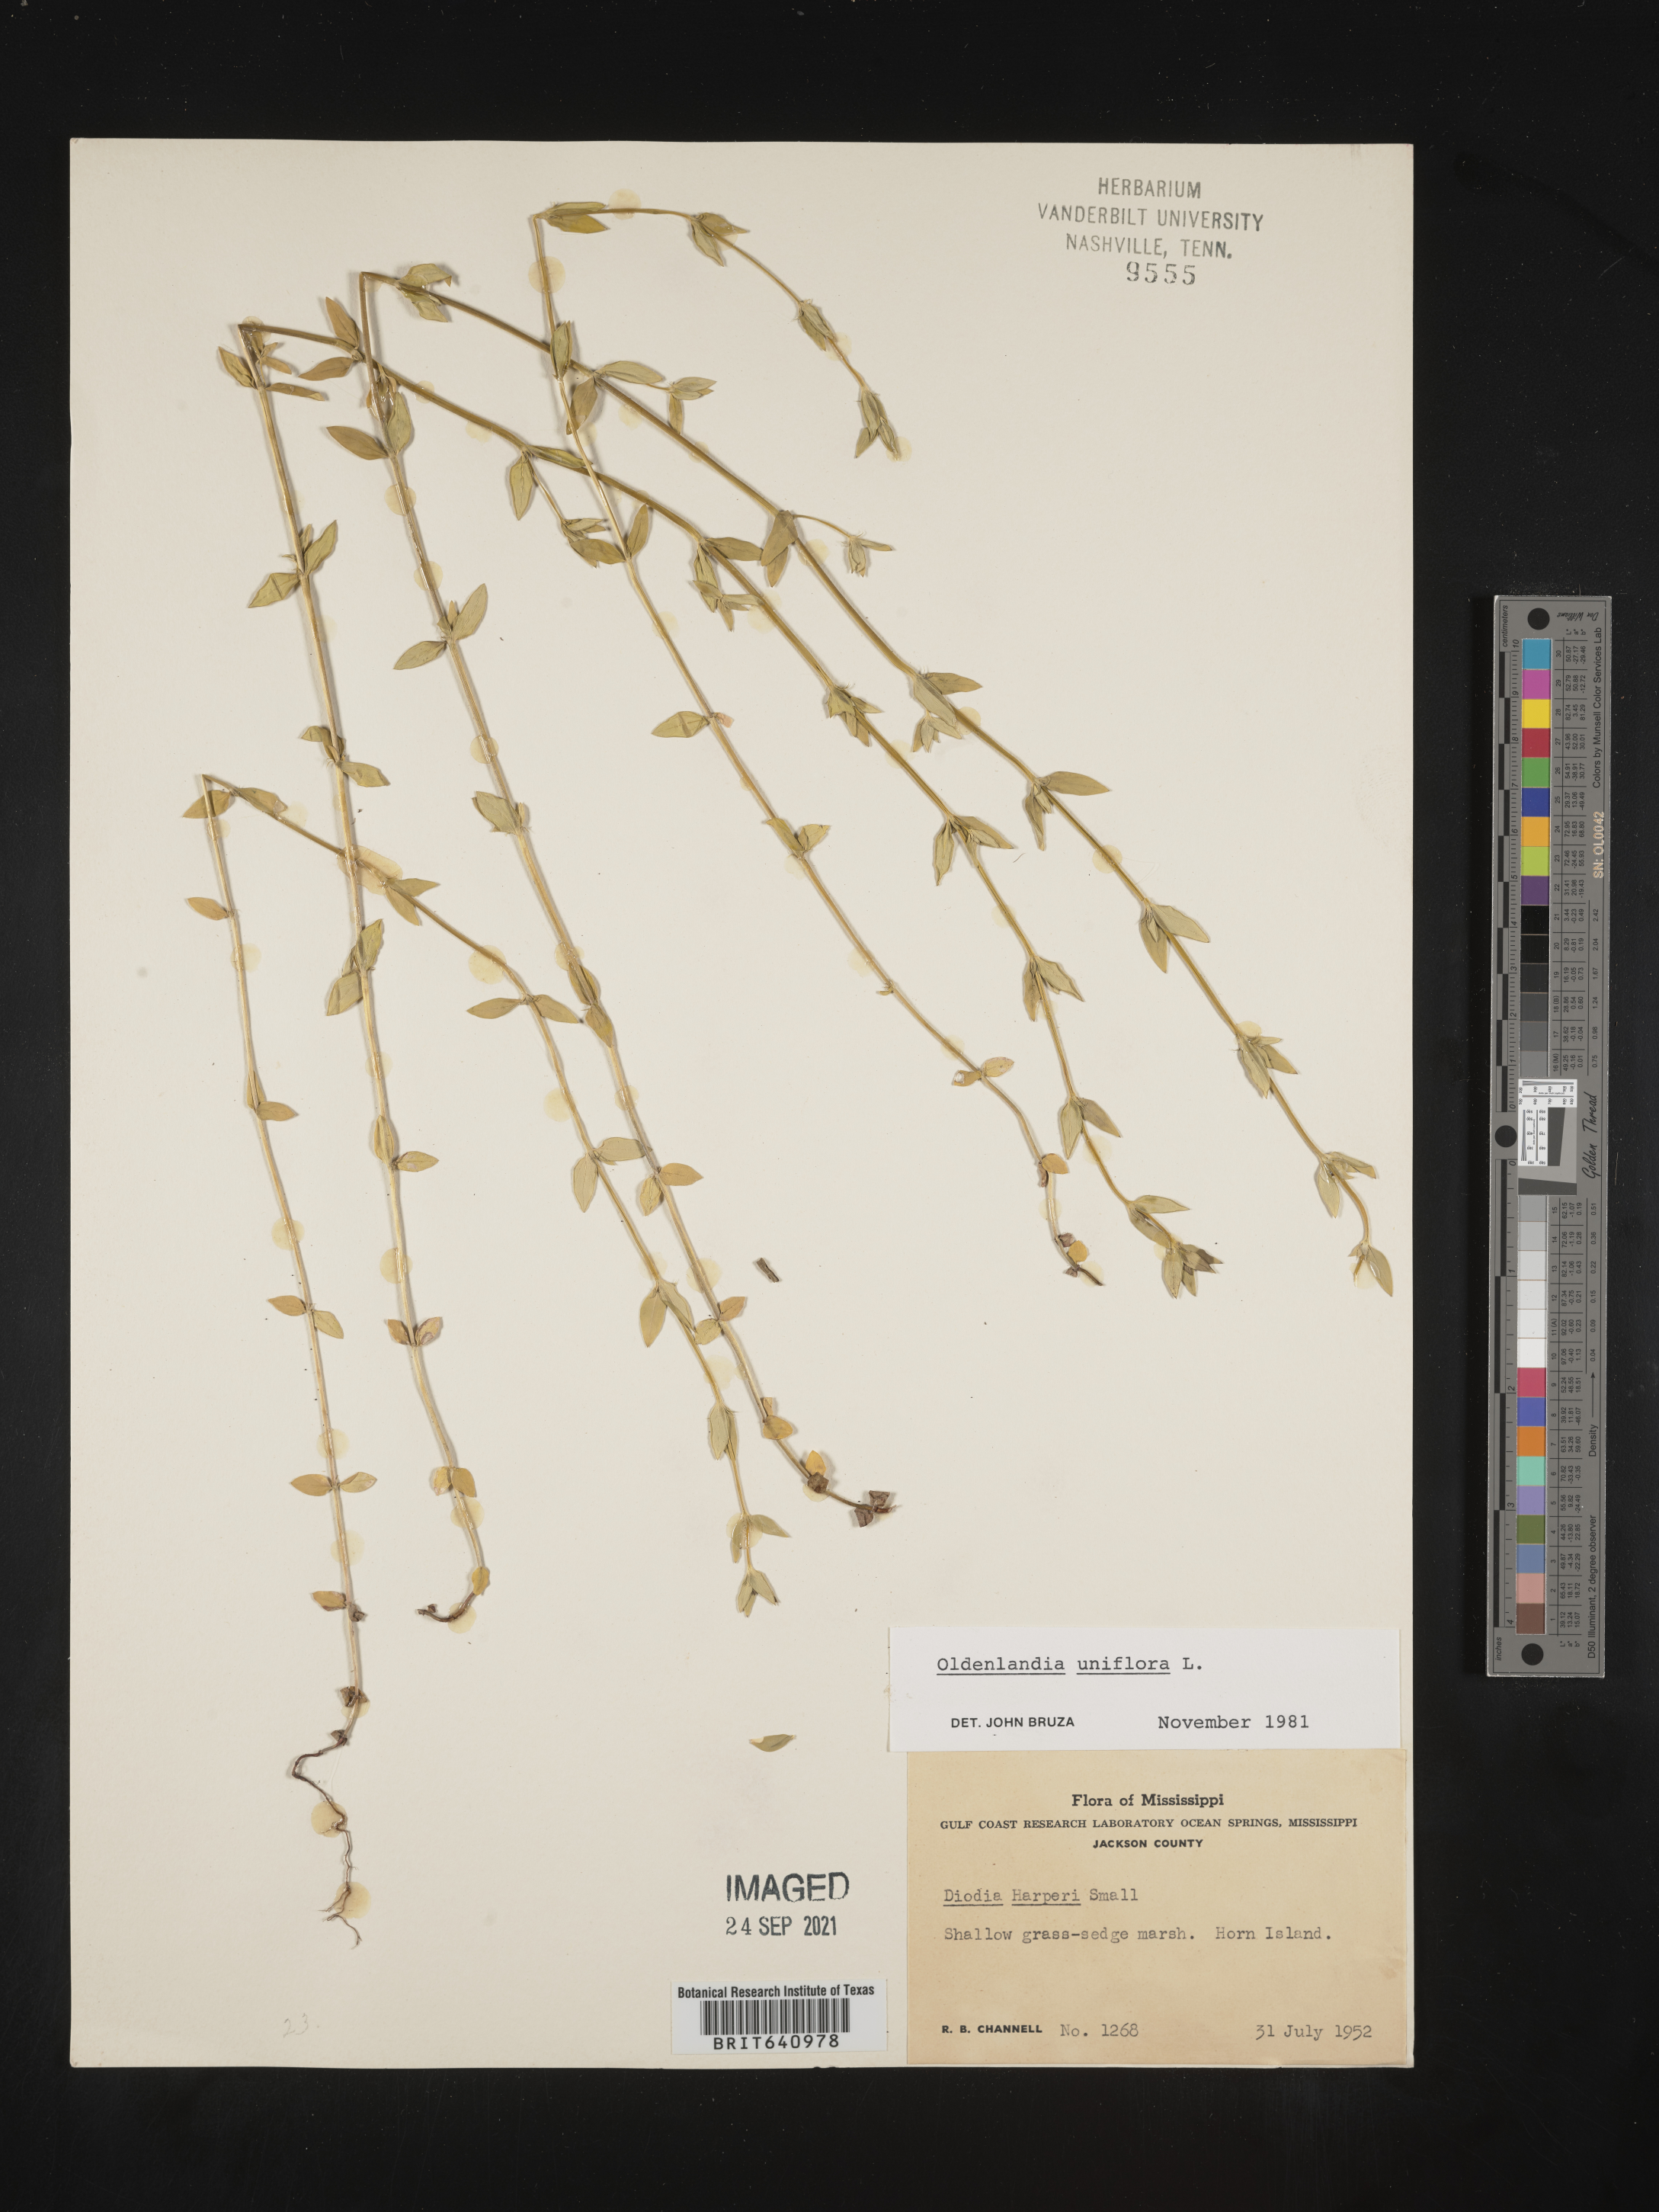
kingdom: Plantae
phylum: Tracheophyta
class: Magnoliopsida
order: Gentianales
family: Rubiaceae
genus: Edrastima
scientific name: Edrastima uniflora
